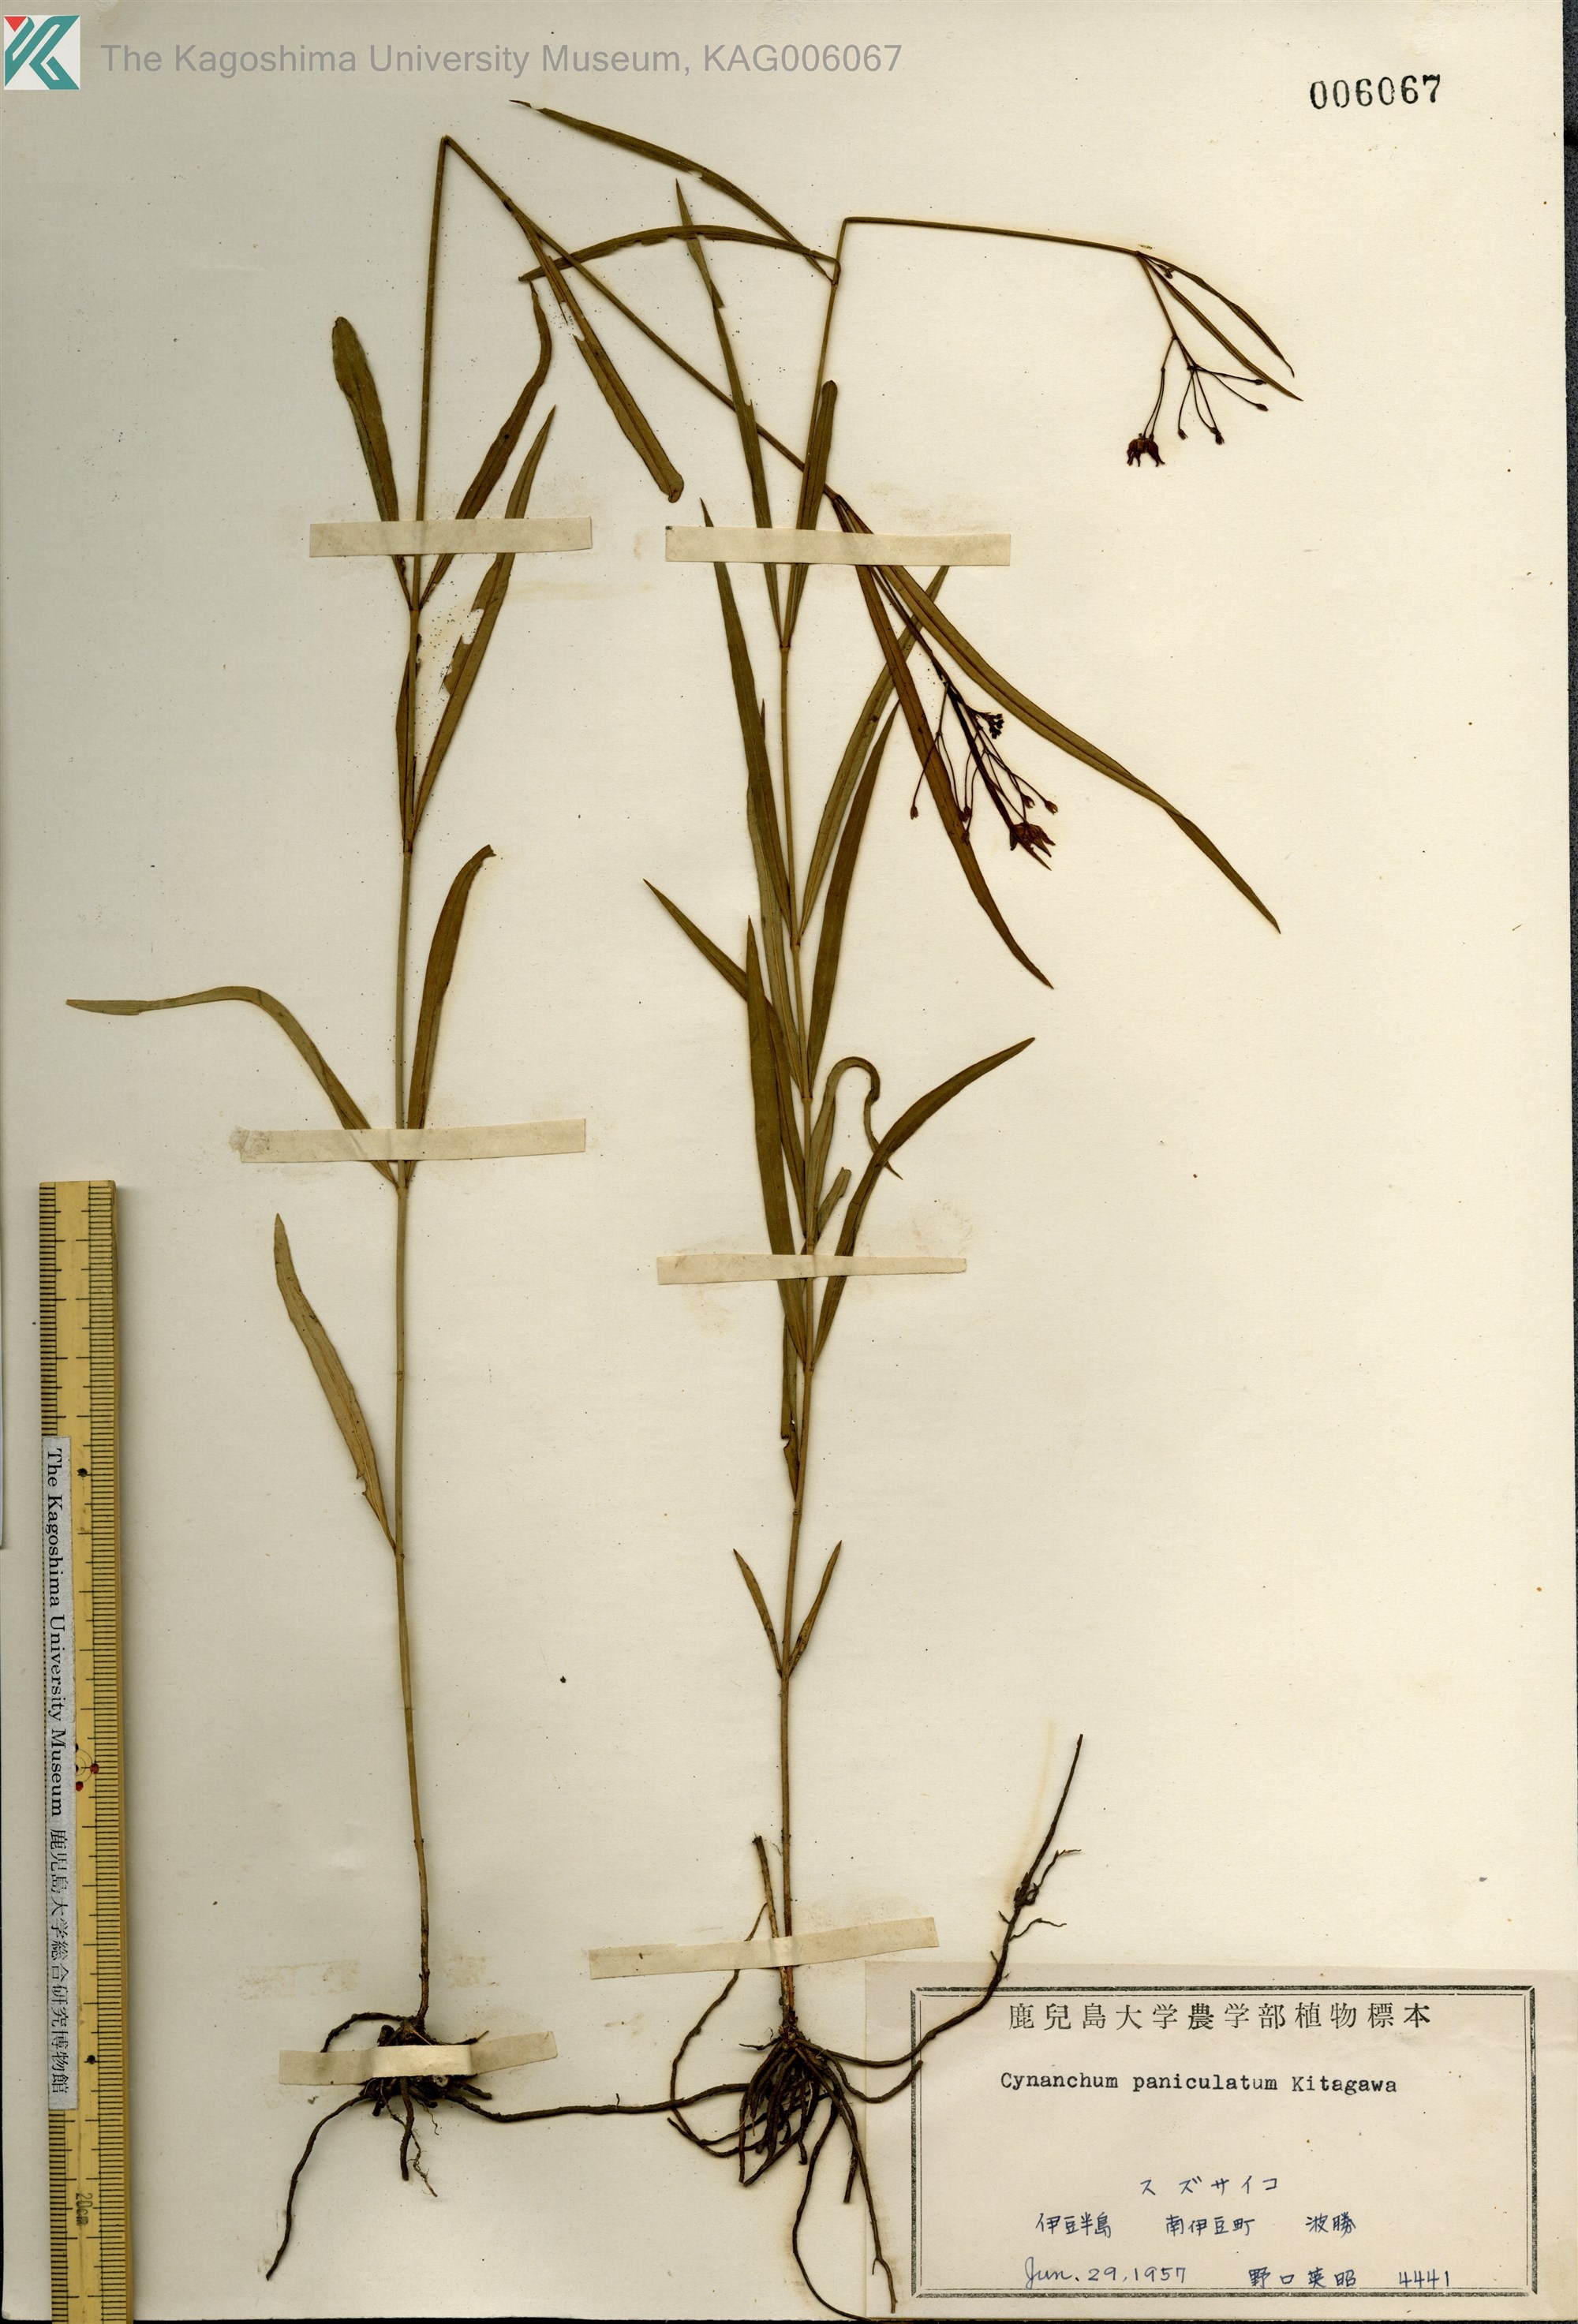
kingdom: Plantae
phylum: Tracheophyta
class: Magnoliopsida
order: Gentianales
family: Apocynaceae
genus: Vincetoxicum
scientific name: Vincetoxicum mukdenense
